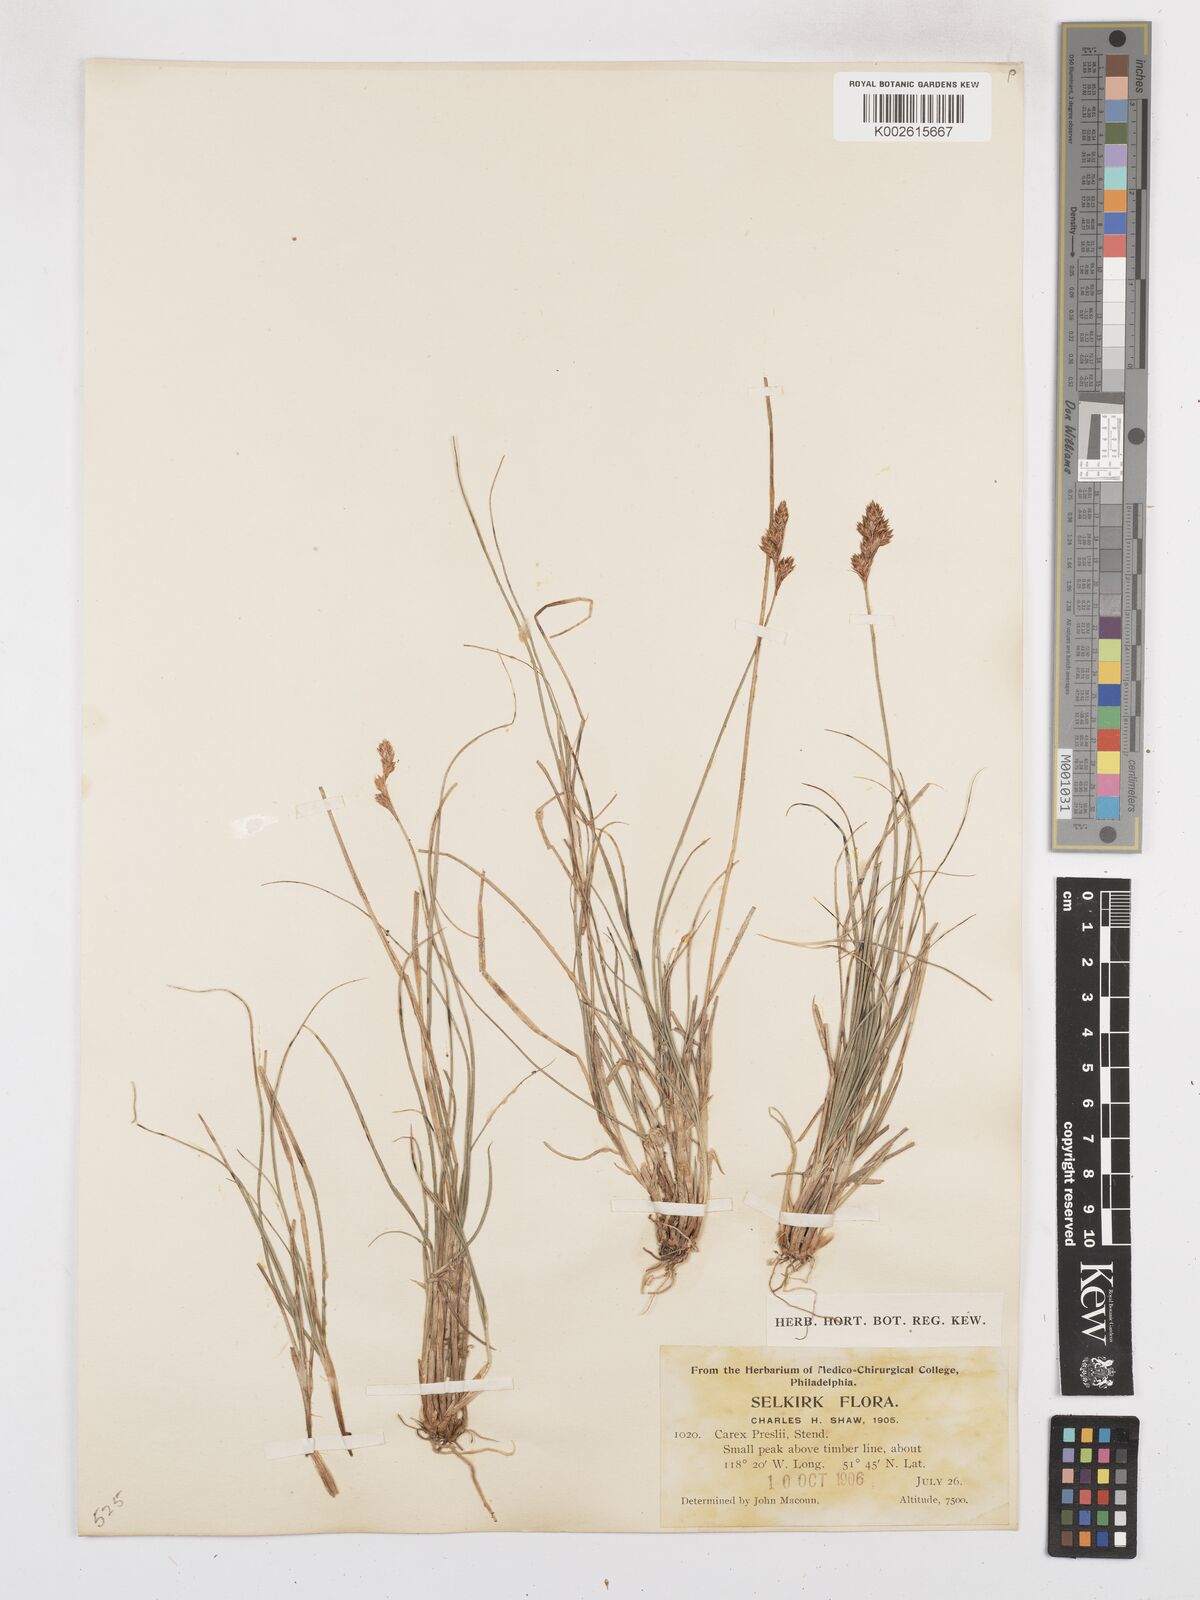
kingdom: Plantae
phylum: Tracheophyta
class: Liliopsida
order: Poales
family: Cyperaceae
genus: Carex
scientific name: Carex preslii
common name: Presl's sedge
